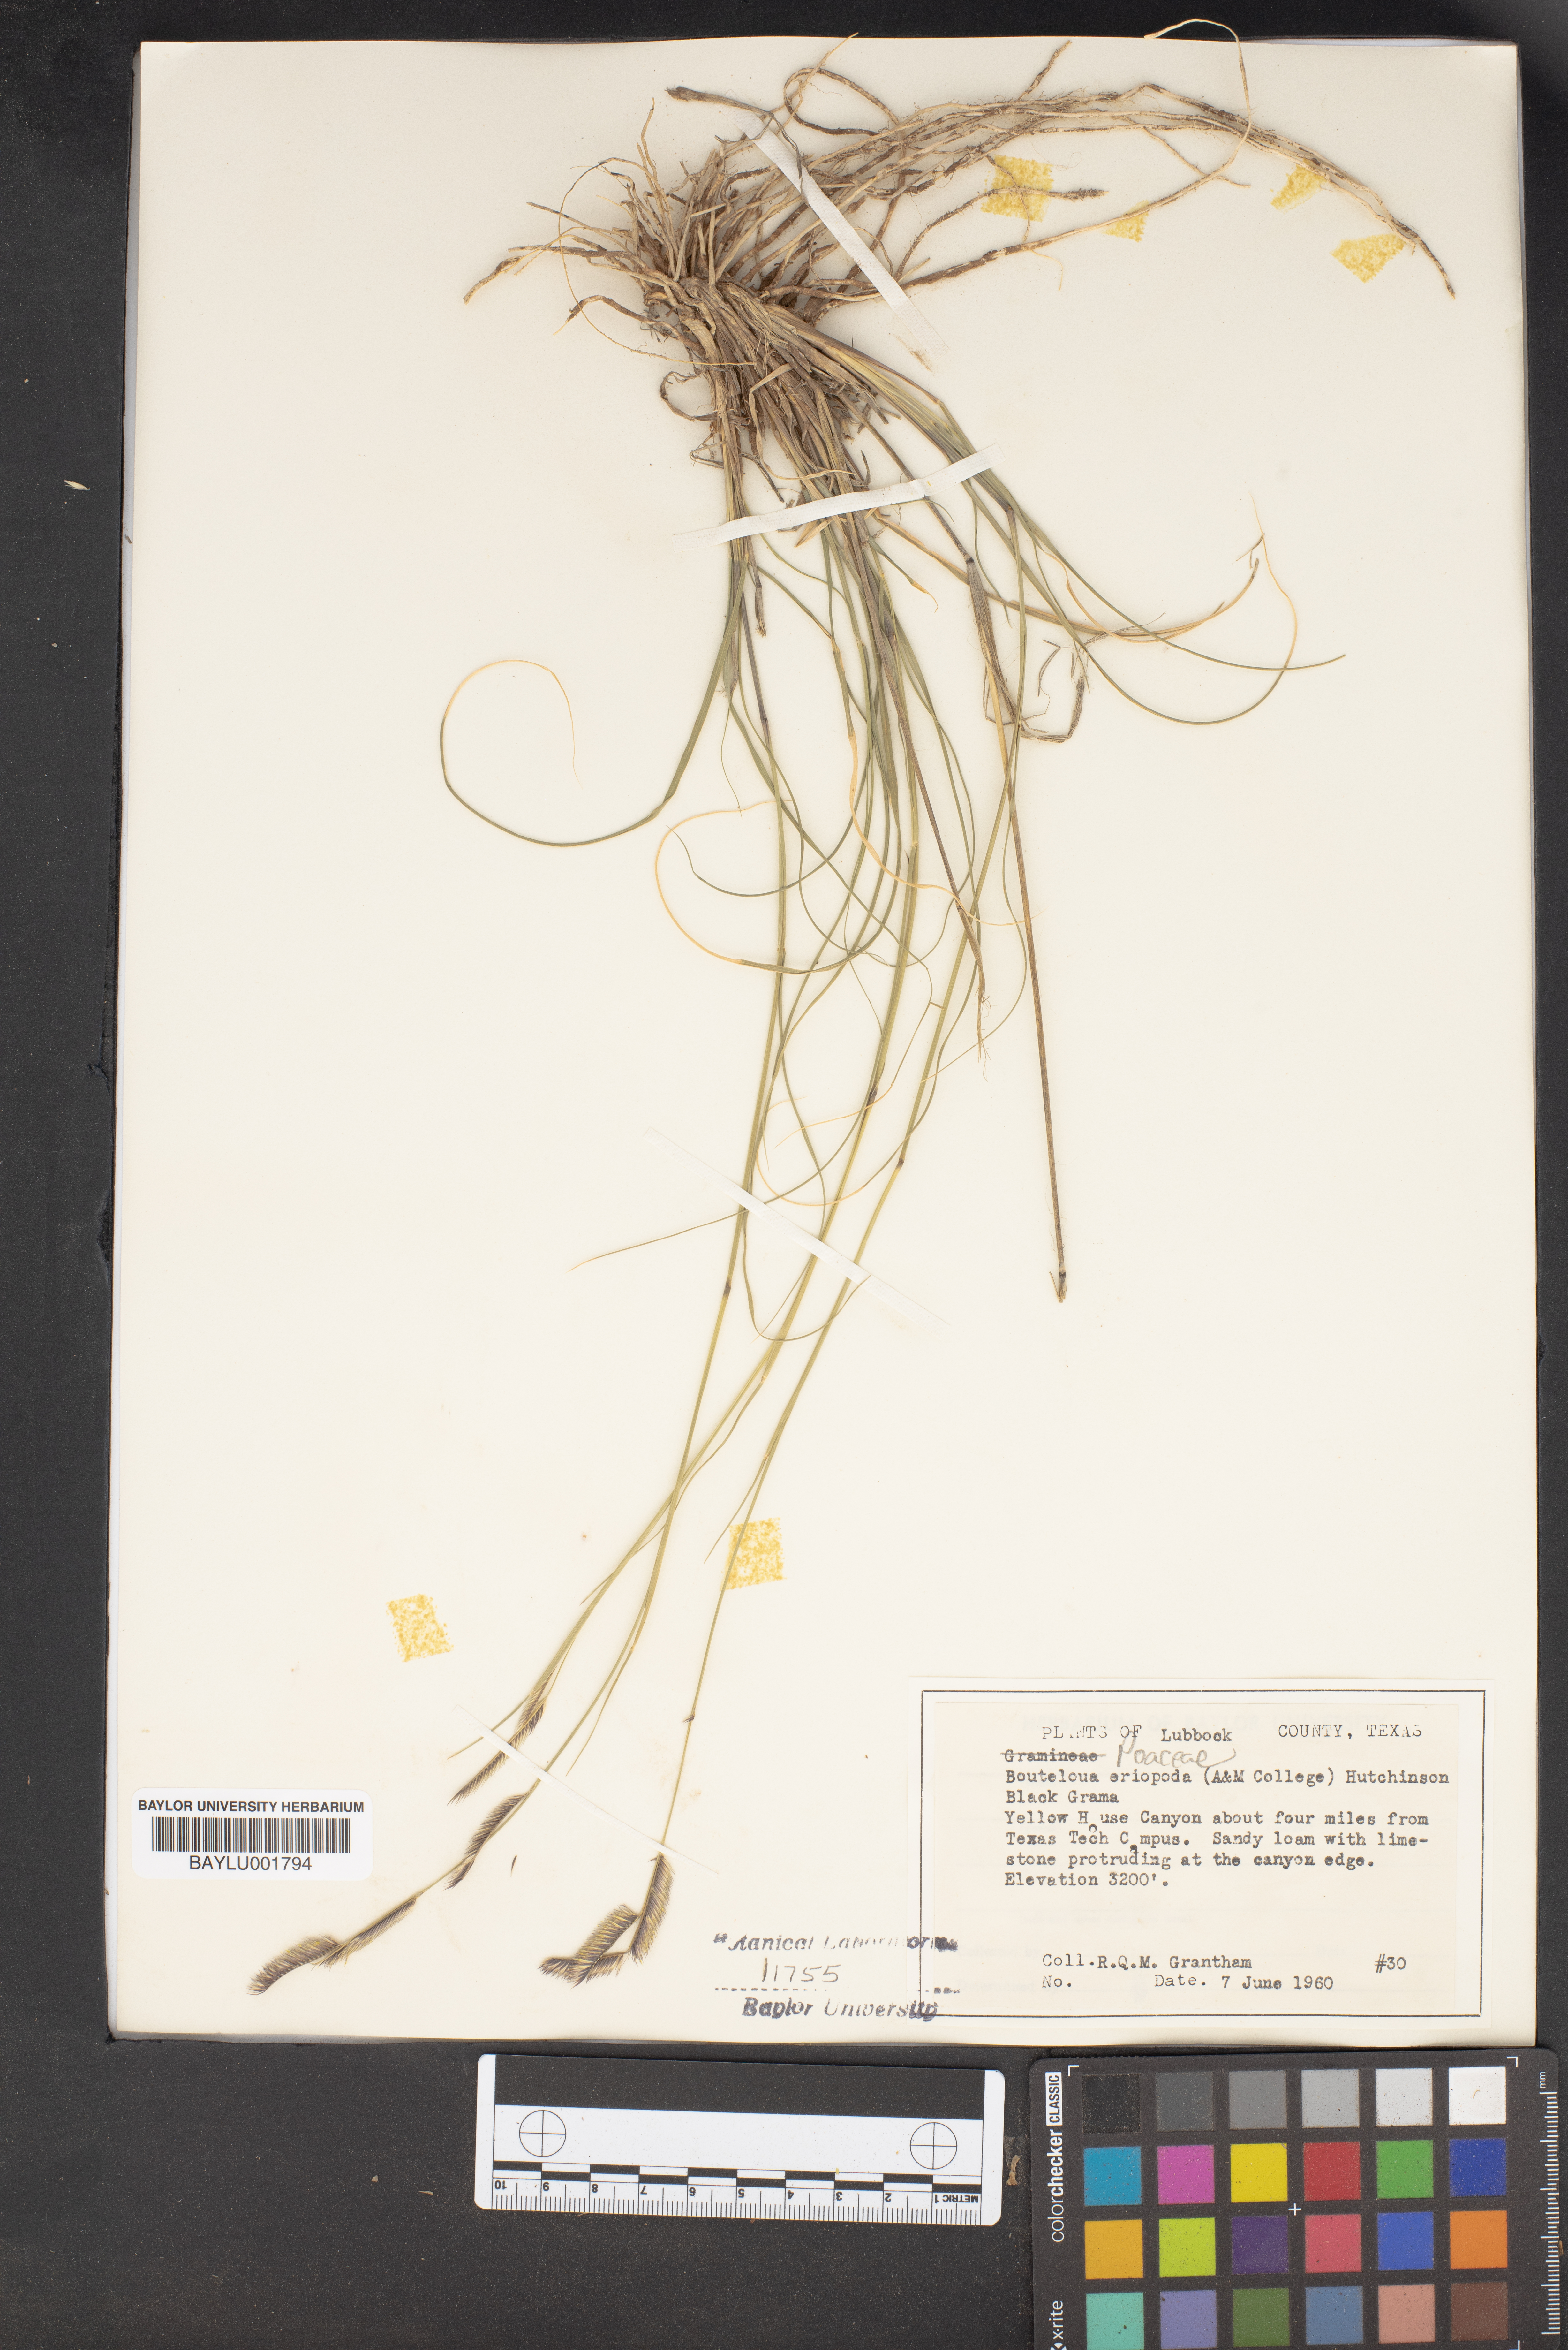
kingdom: Plantae
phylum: Tracheophyta
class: Liliopsida
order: Poales
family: Poaceae
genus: Bouteloua
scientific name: Bouteloua eriopoda
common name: Woolly foot grama
